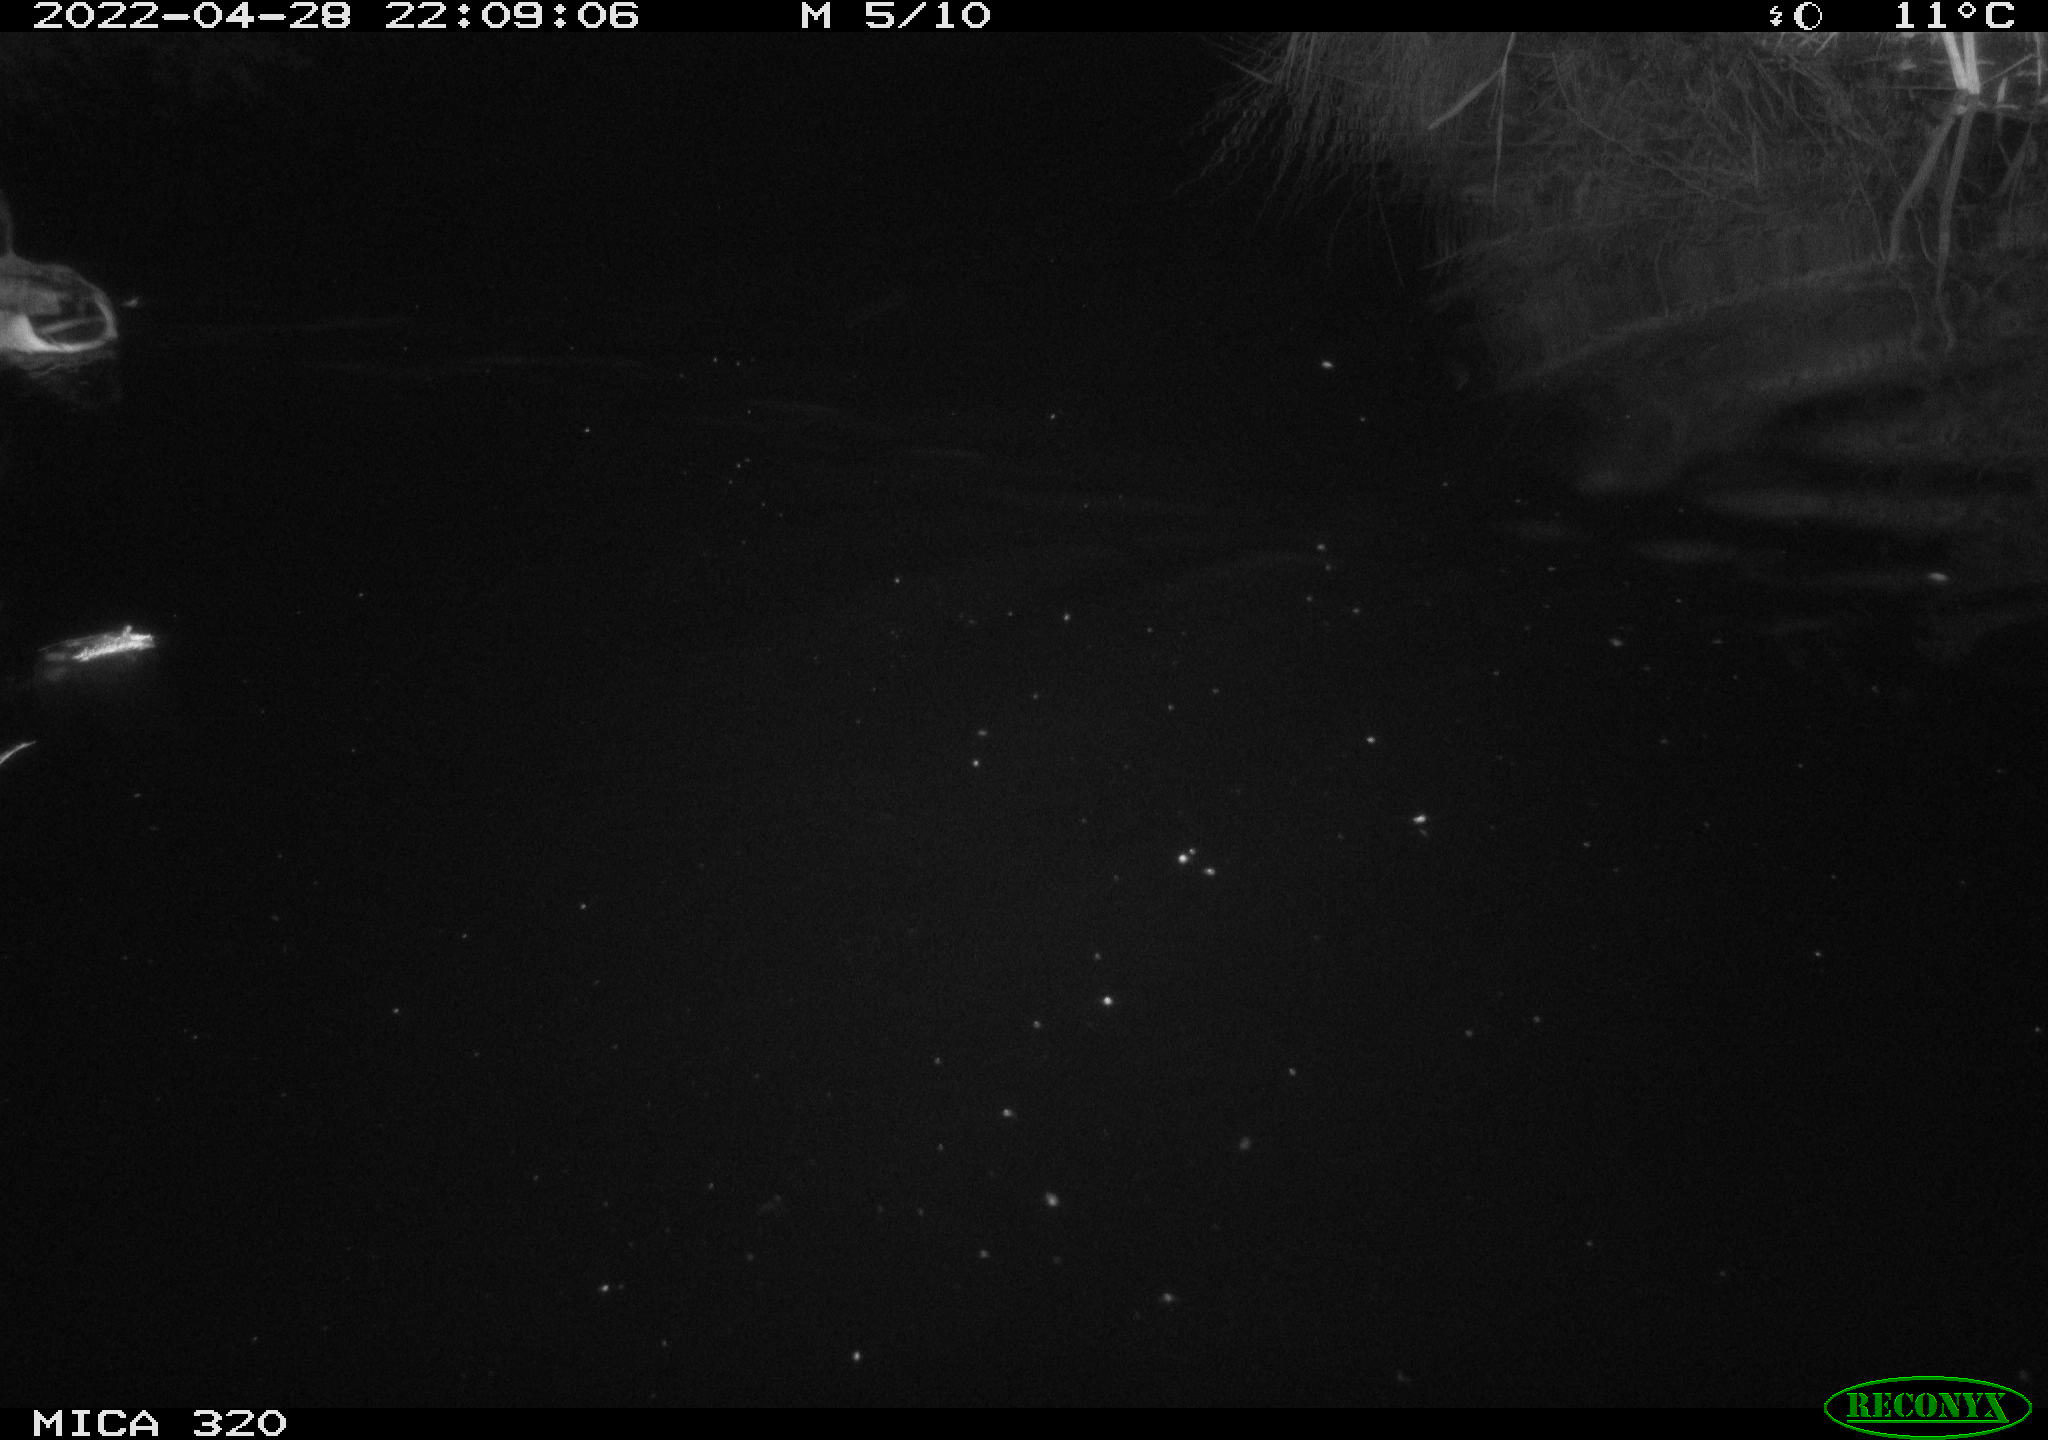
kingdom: Animalia
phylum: Chordata
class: Aves
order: Anseriformes
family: Anatidae
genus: Anas
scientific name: Anas platyrhynchos
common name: Mallard
